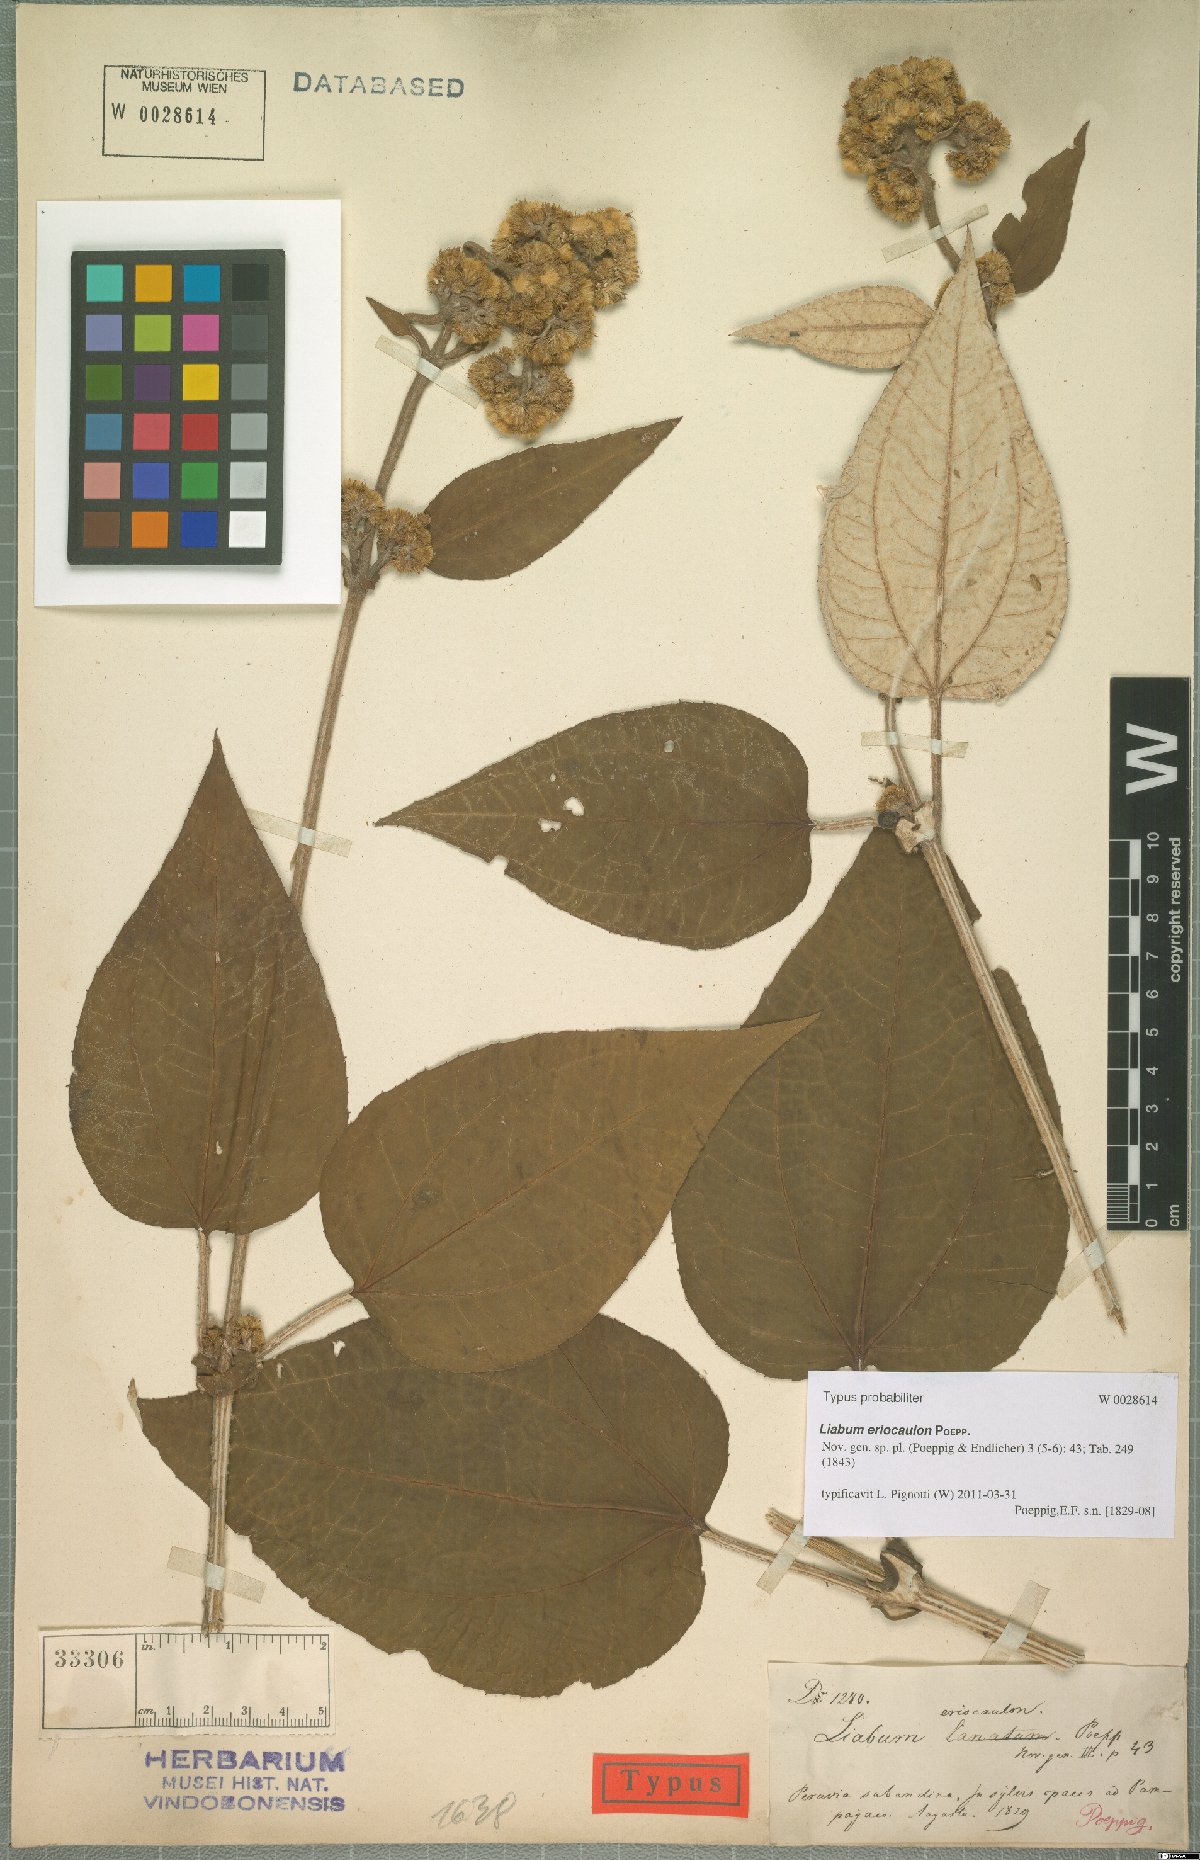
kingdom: Plantae
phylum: Tracheophyta
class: Magnoliopsida
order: Asterales
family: Asteraceae
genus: Liabum
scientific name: Liabum eriocaulon
